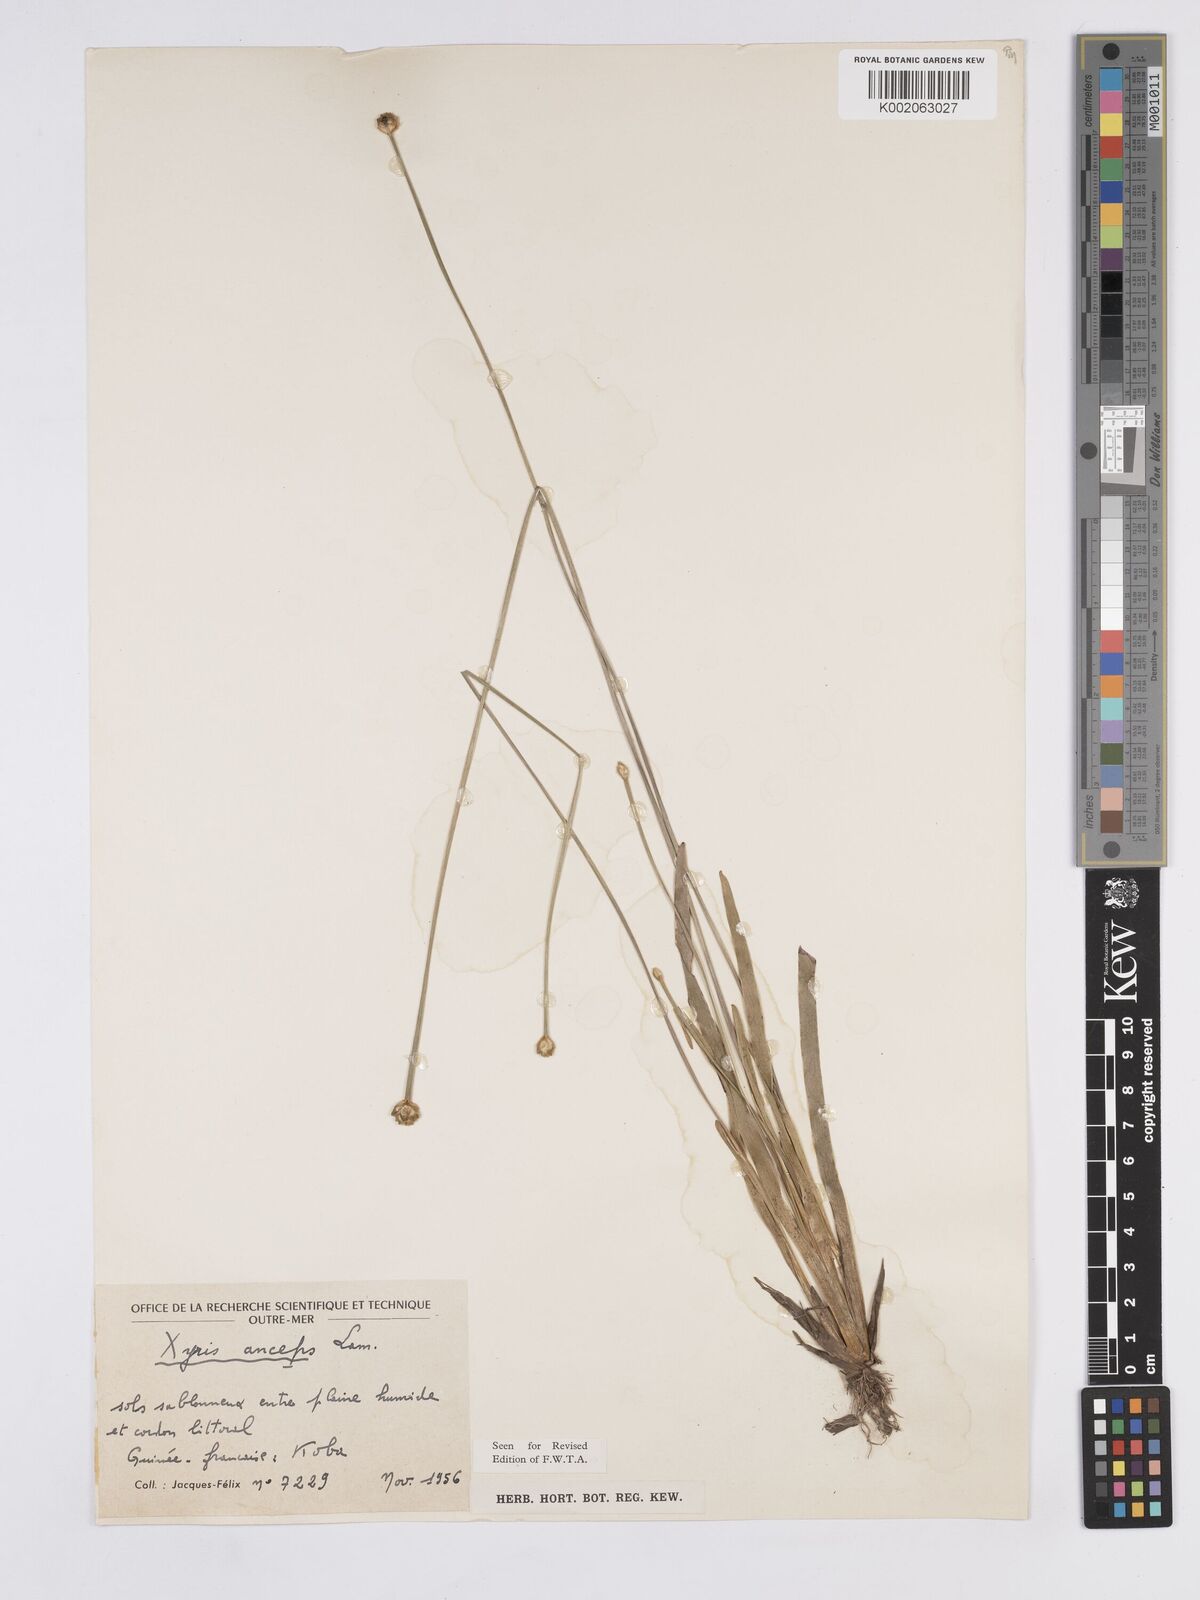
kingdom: Plantae
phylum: Tracheophyta
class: Liliopsida
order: Poales
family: Xyridaceae
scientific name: Xyridaceae
